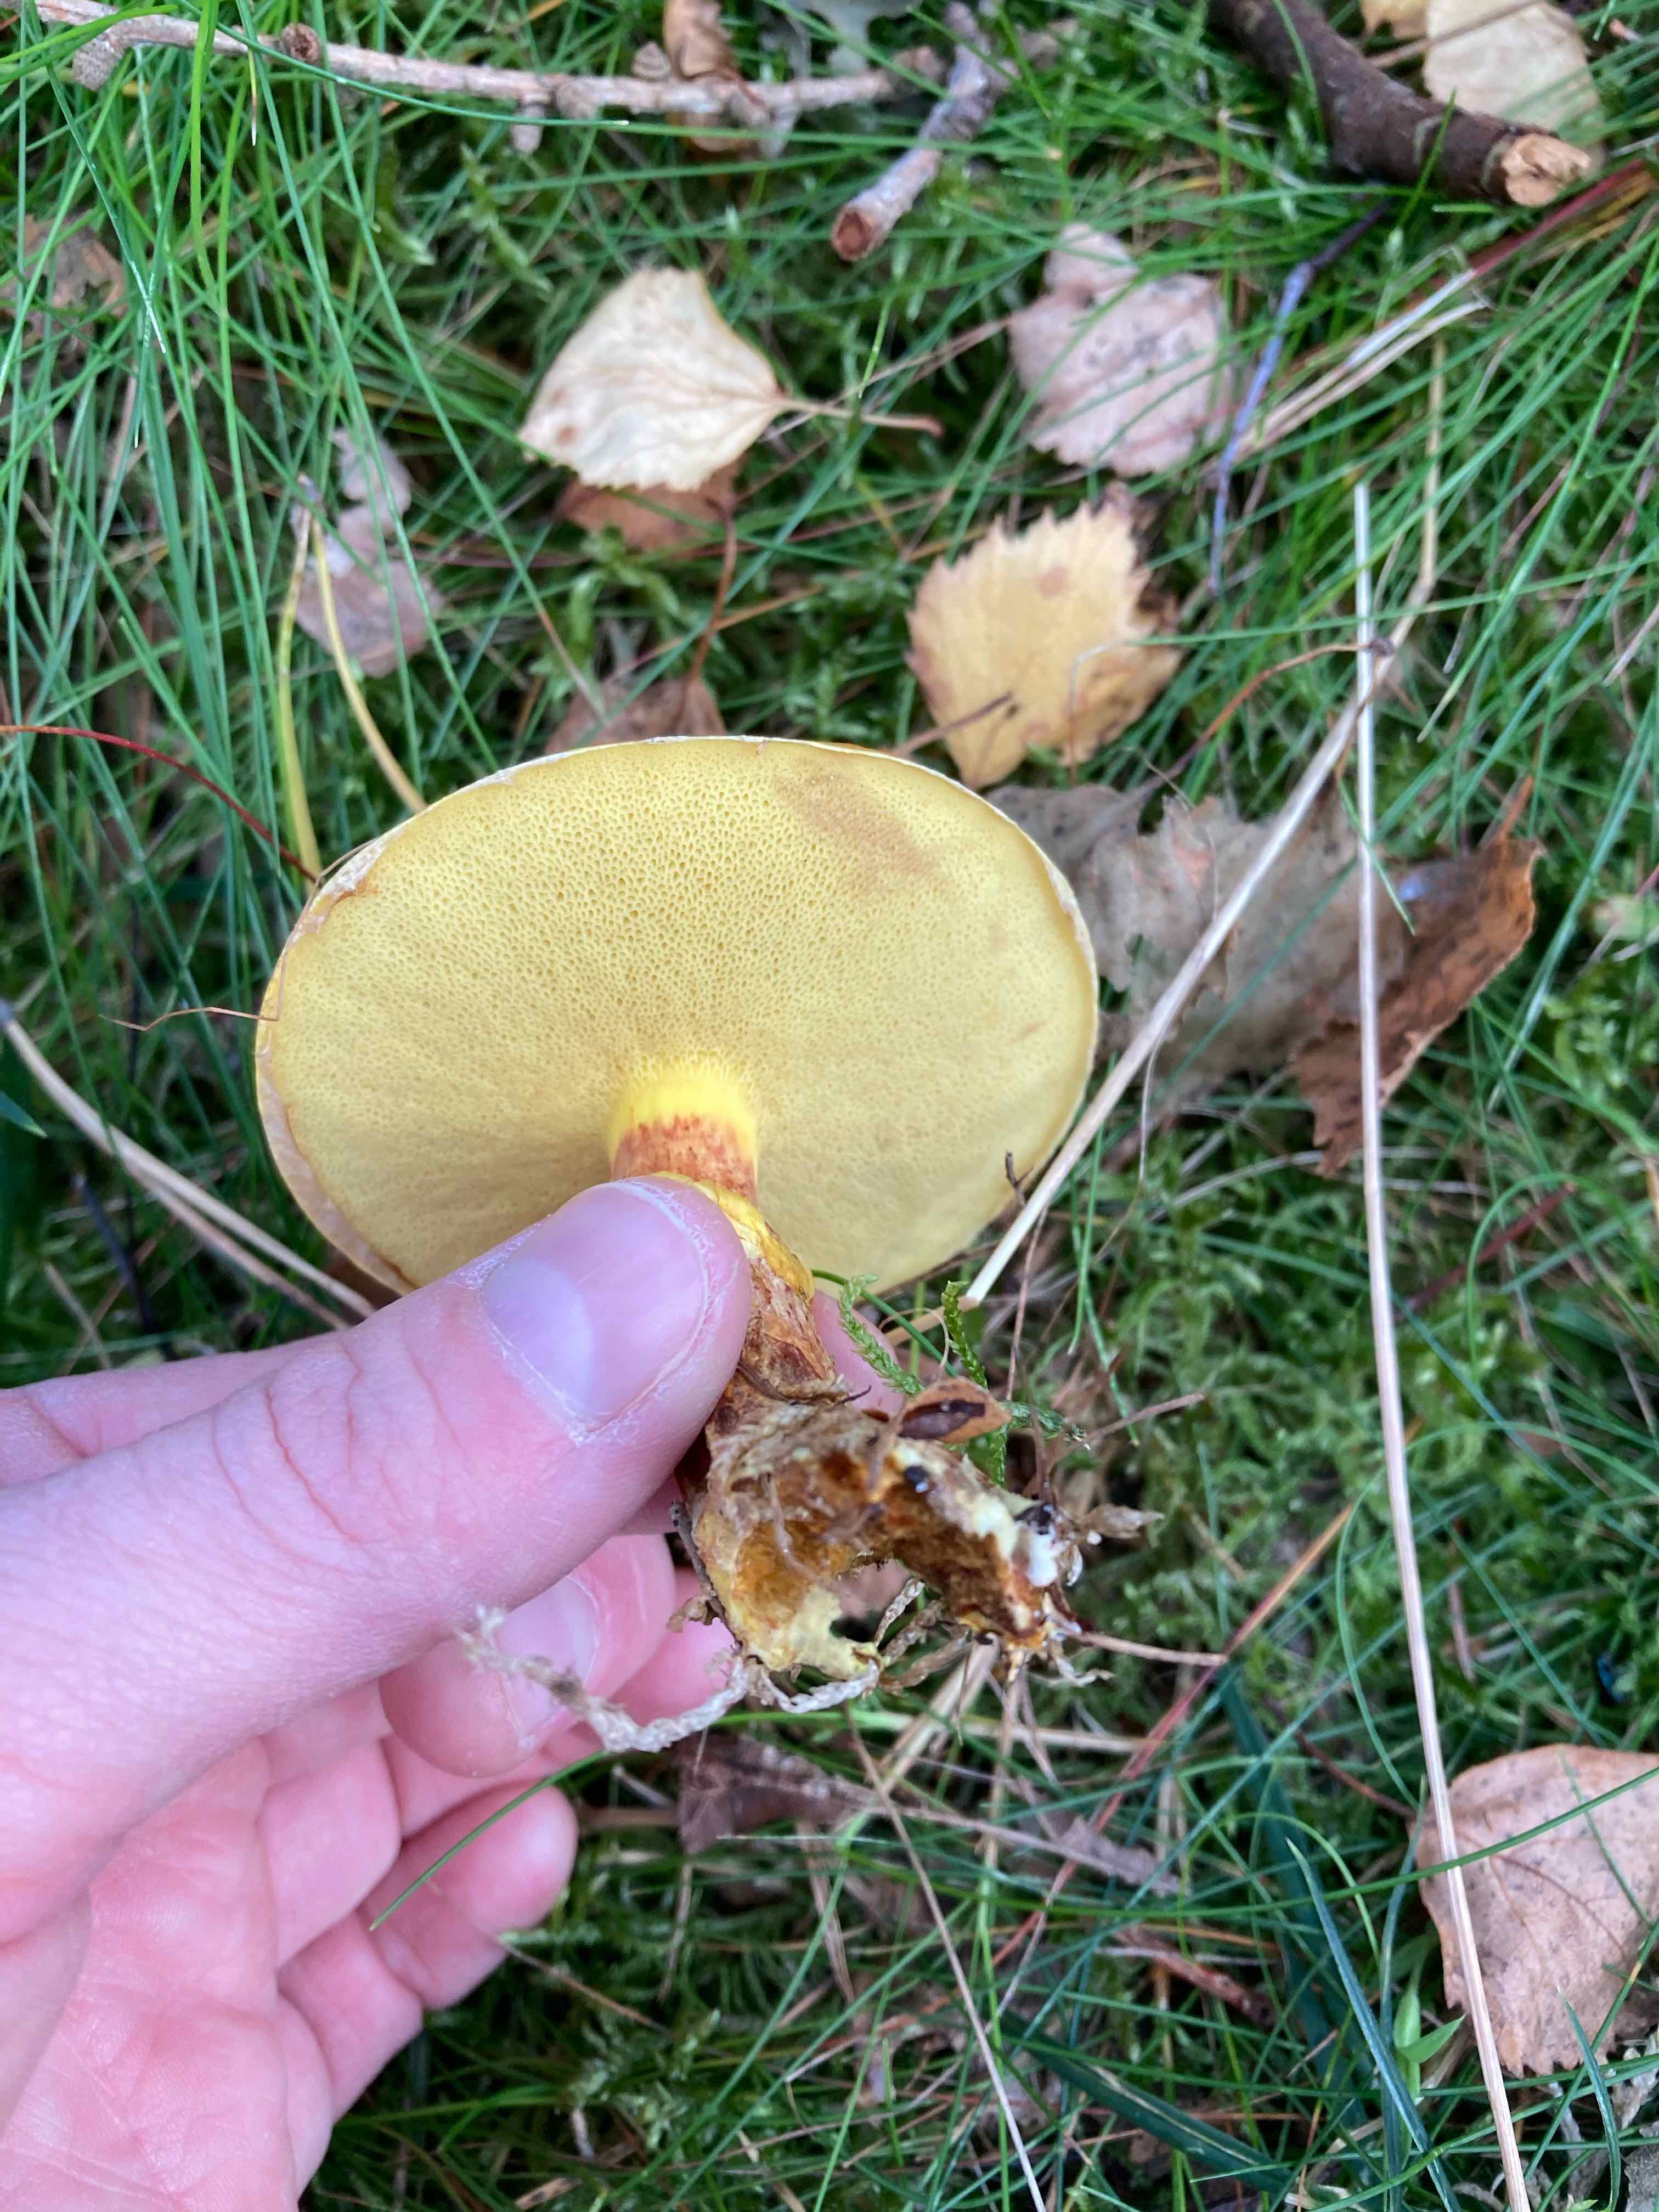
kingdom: Fungi
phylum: Basidiomycota
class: Agaricomycetes
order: Boletales
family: Suillaceae
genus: Suillus
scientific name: Suillus grevillei
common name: lærke-slimrørhat
